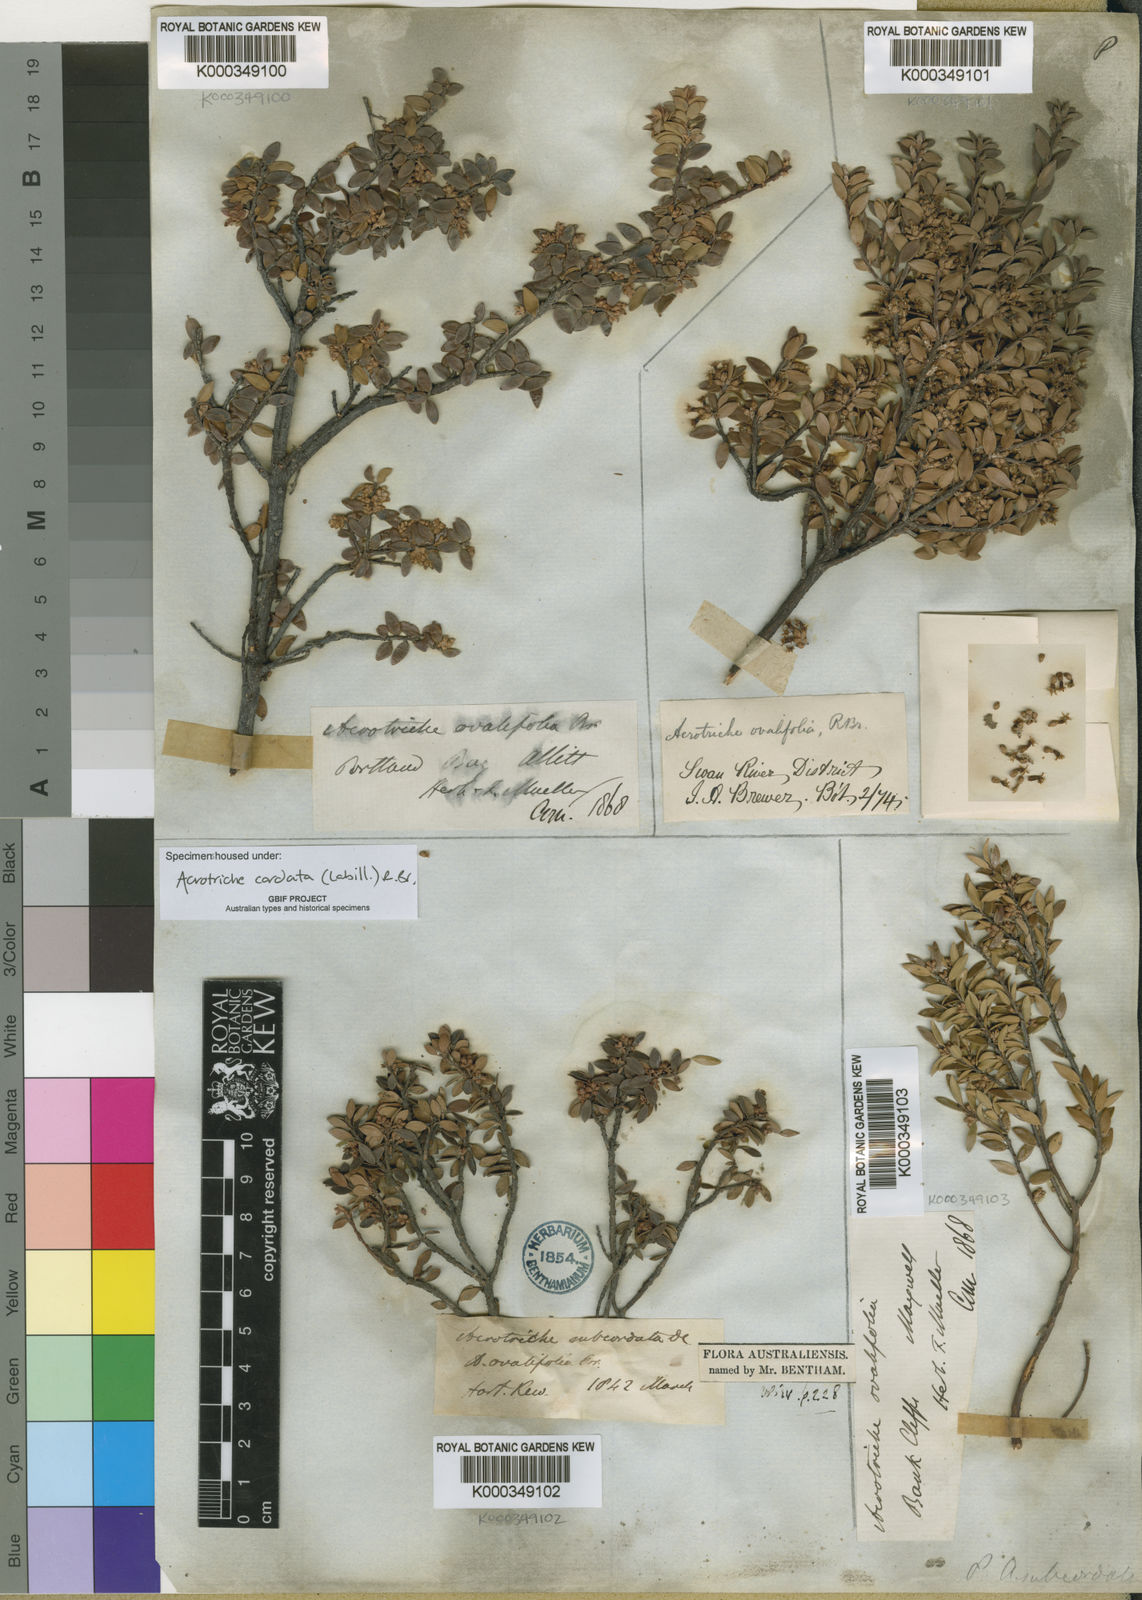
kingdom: Plantae
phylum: Tracheophyta
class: Magnoliopsida
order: Ericales
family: Ericaceae
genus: Acrotriche
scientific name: Acrotriche cordata
